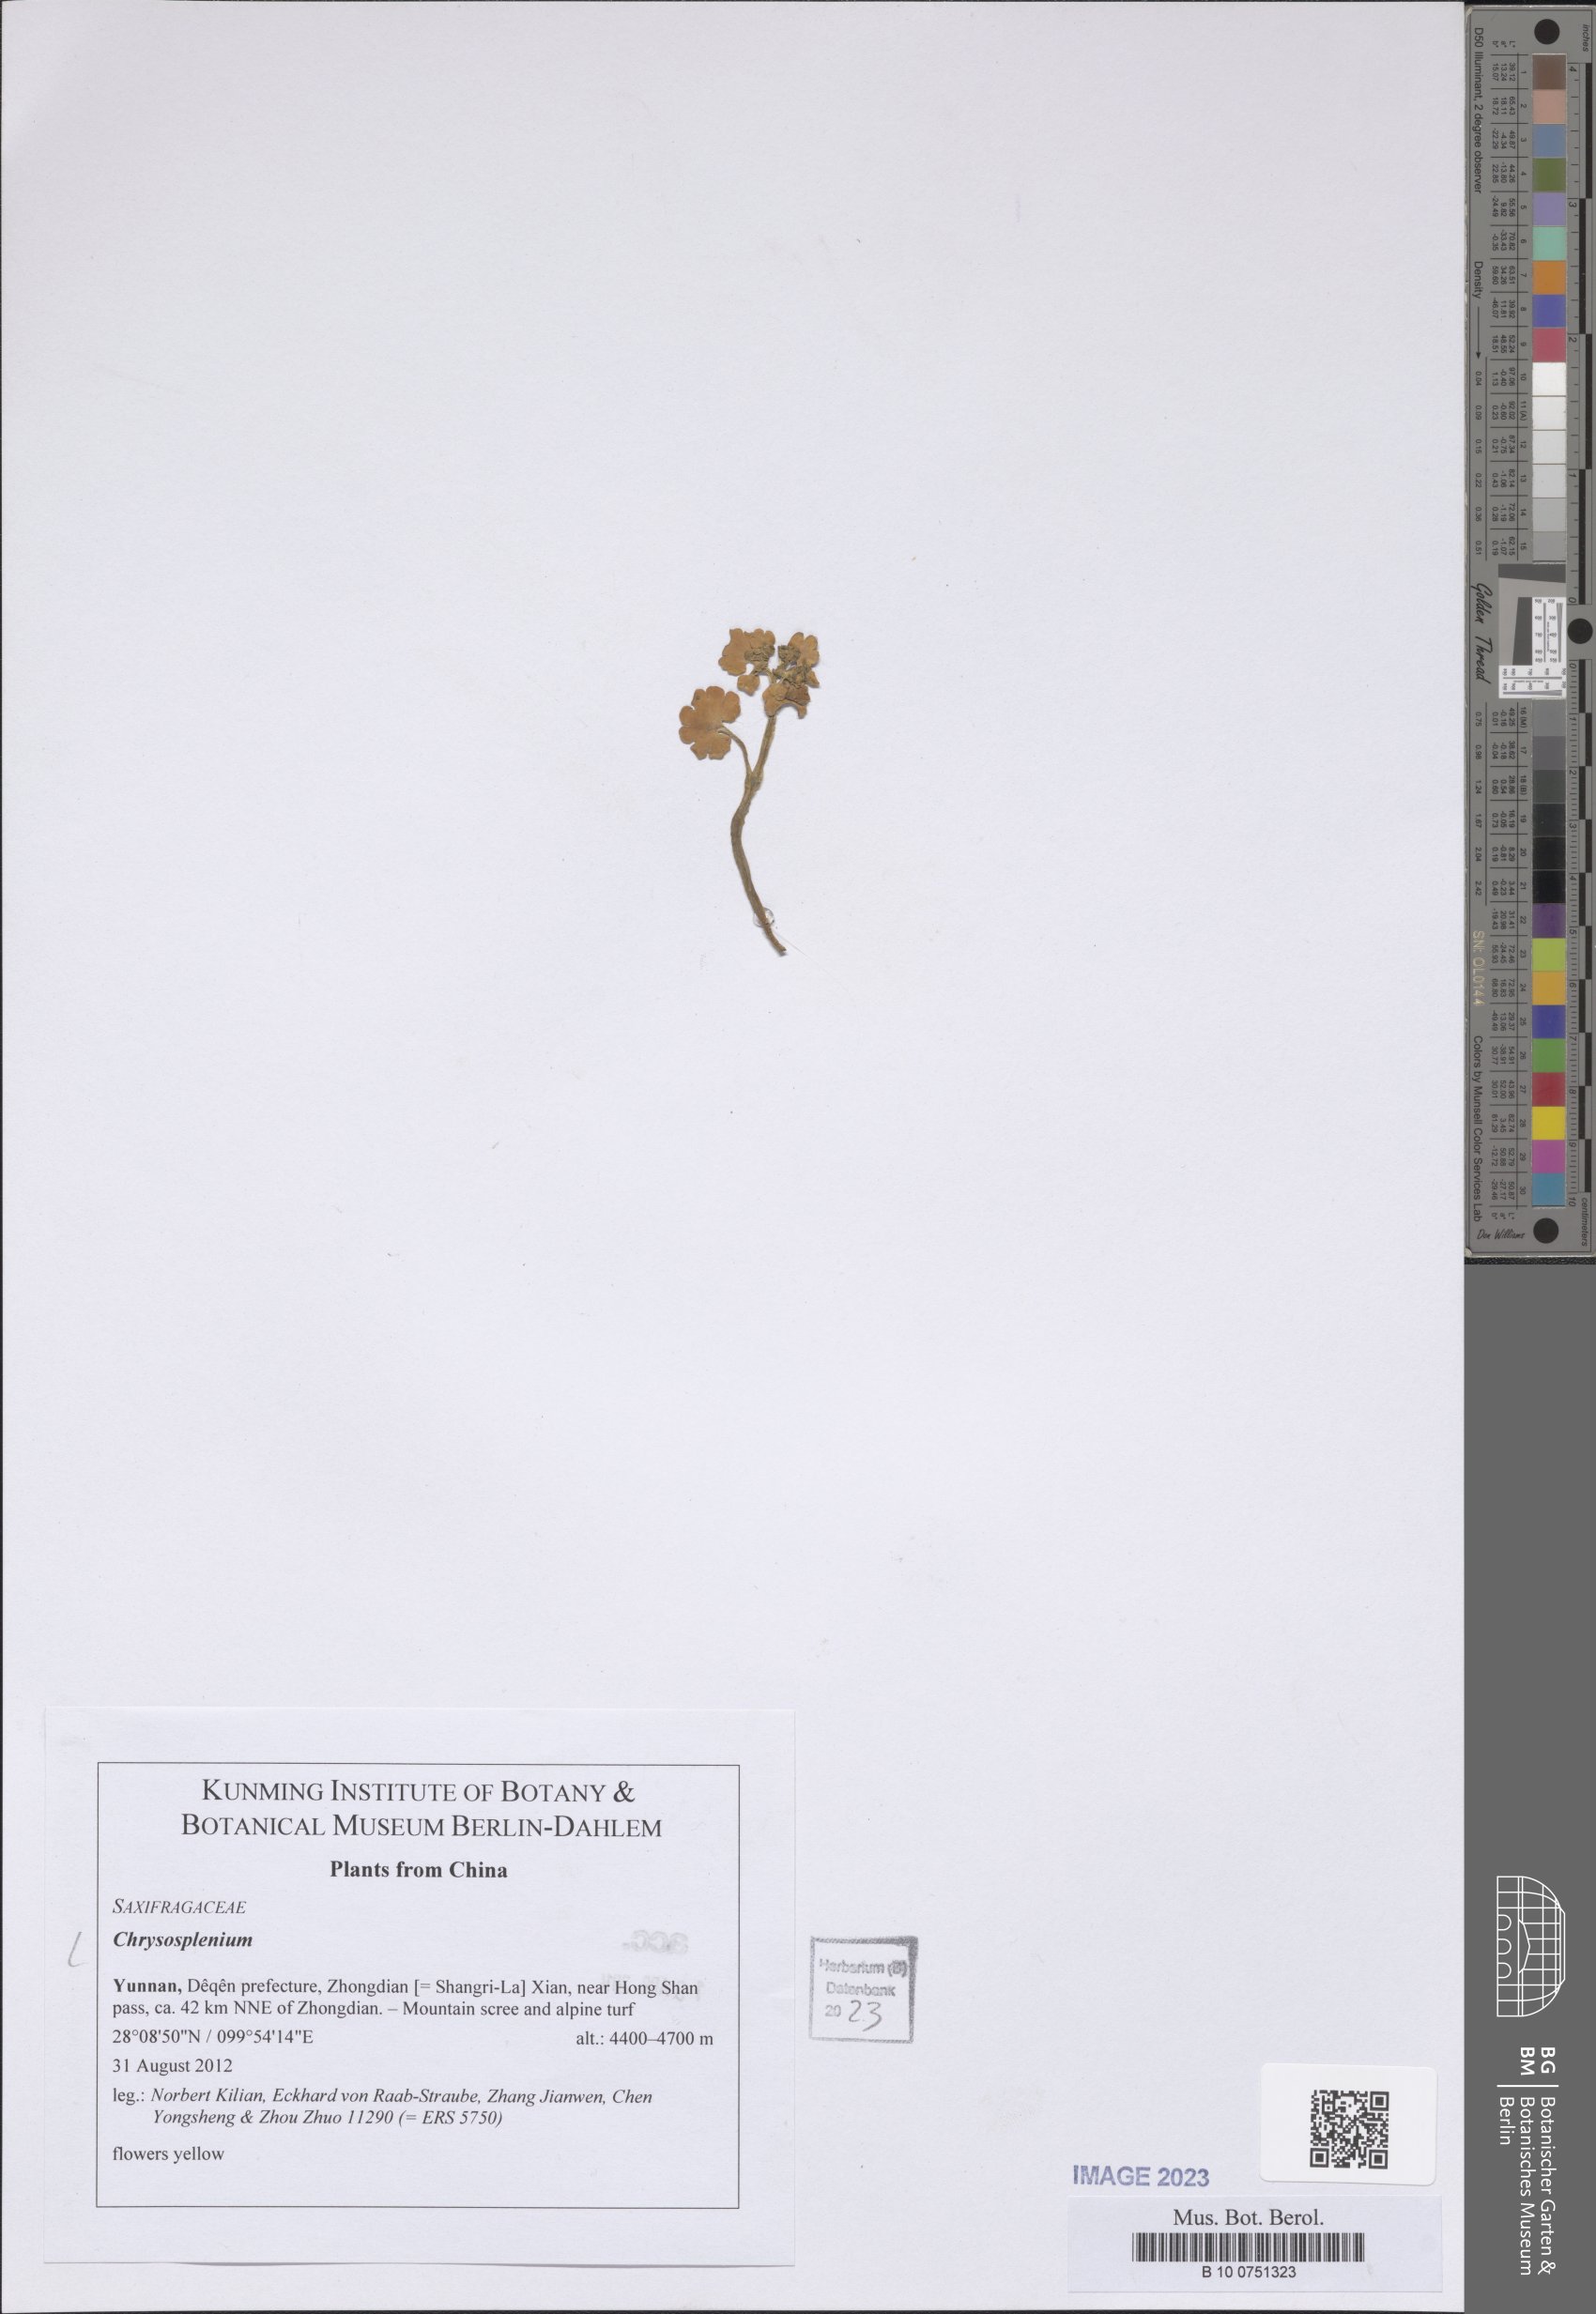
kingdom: Plantae
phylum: Tracheophyta
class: Magnoliopsida
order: Saxifragales
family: Saxifragaceae
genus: Chrysosplenium
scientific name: Chrysosplenium
